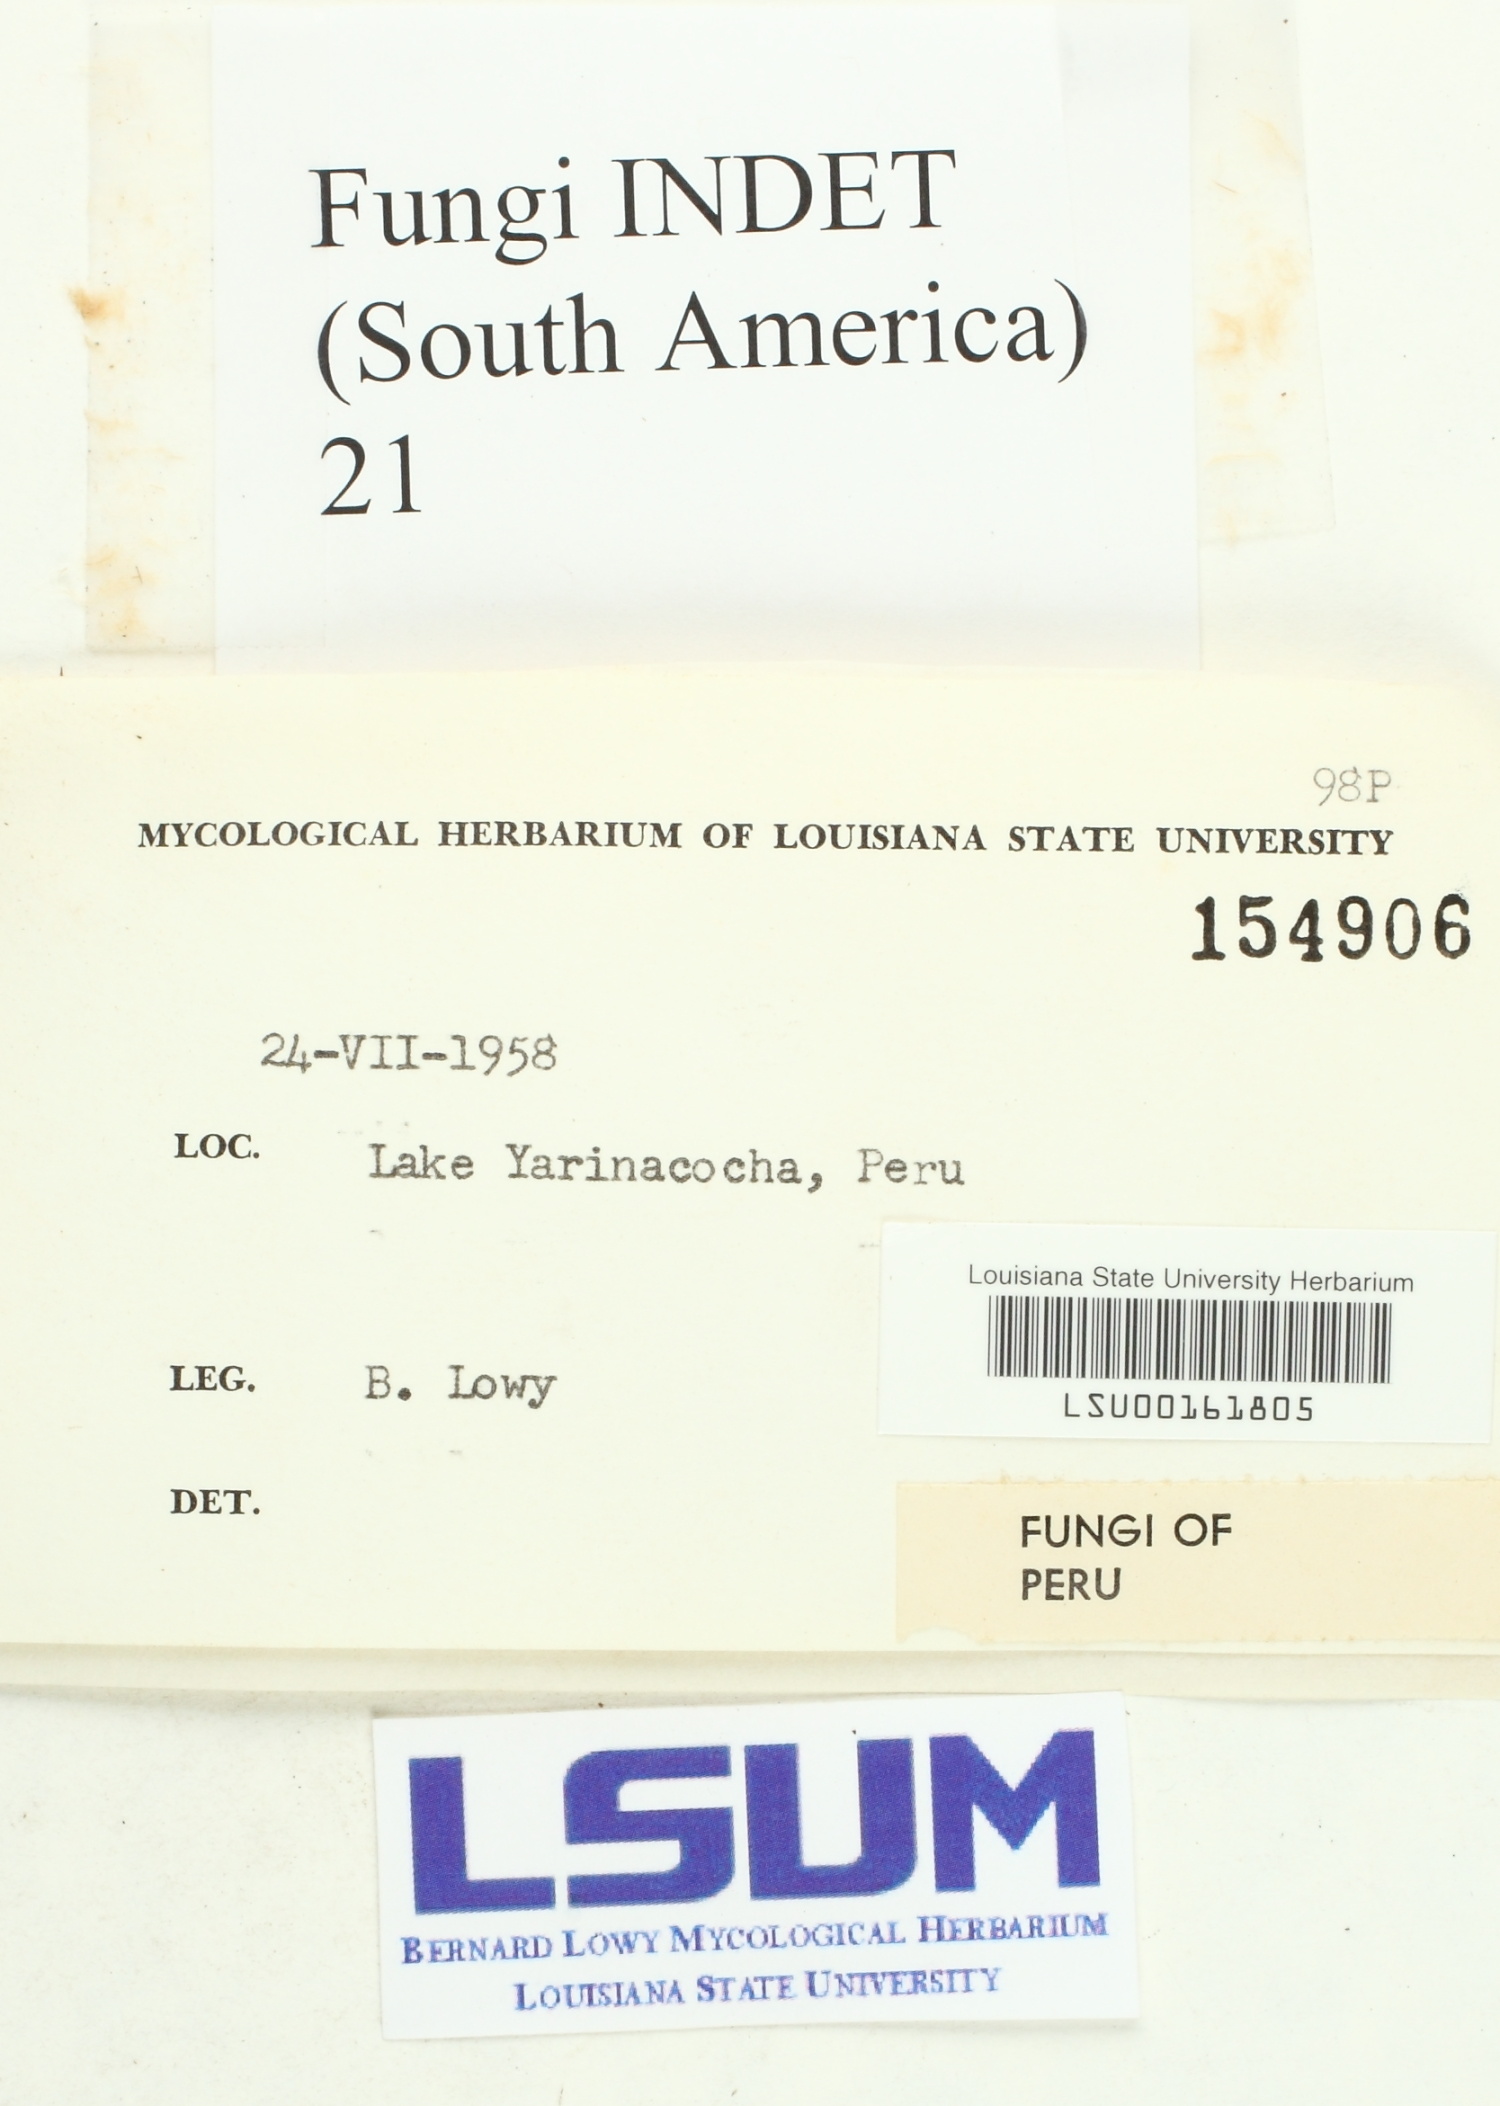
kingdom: Fungi
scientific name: Fungi
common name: Fungi
